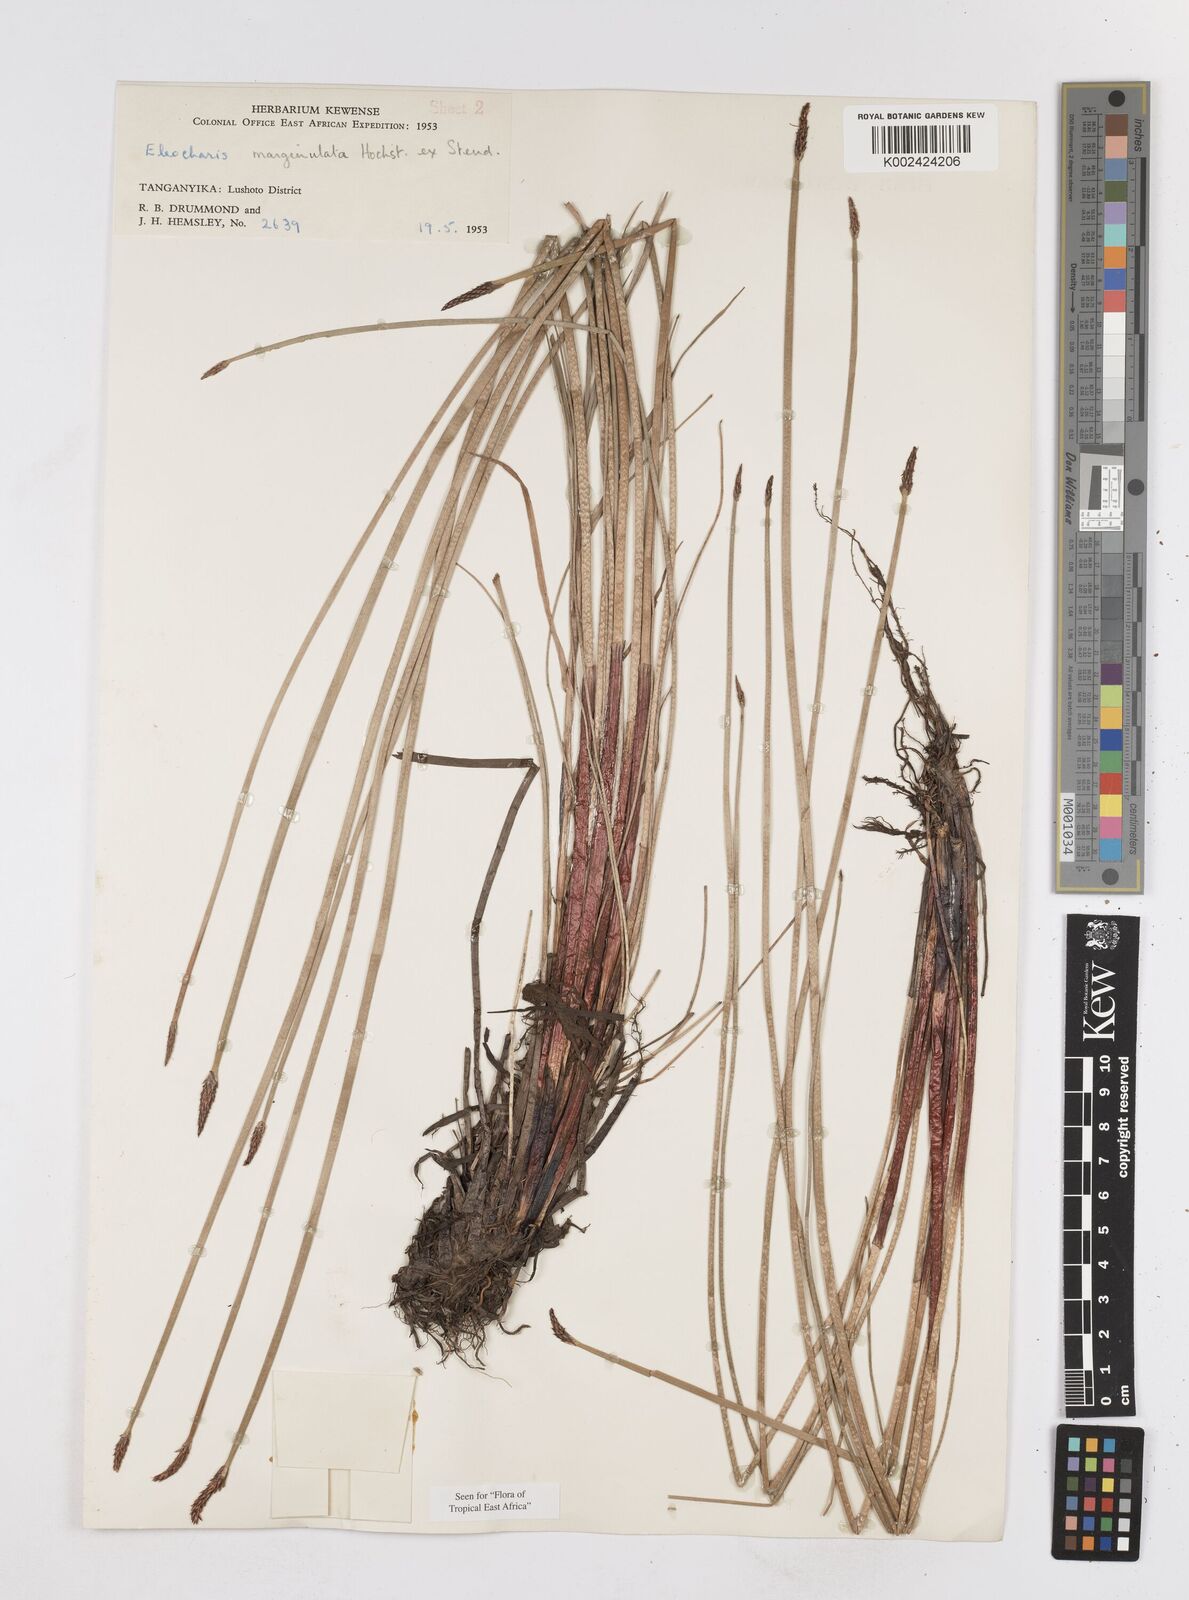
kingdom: Plantae
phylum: Tracheophyta
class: Liliopsida
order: Poales
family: Cyperaceae
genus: Eleocharis
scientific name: Eleocharis marginulata
